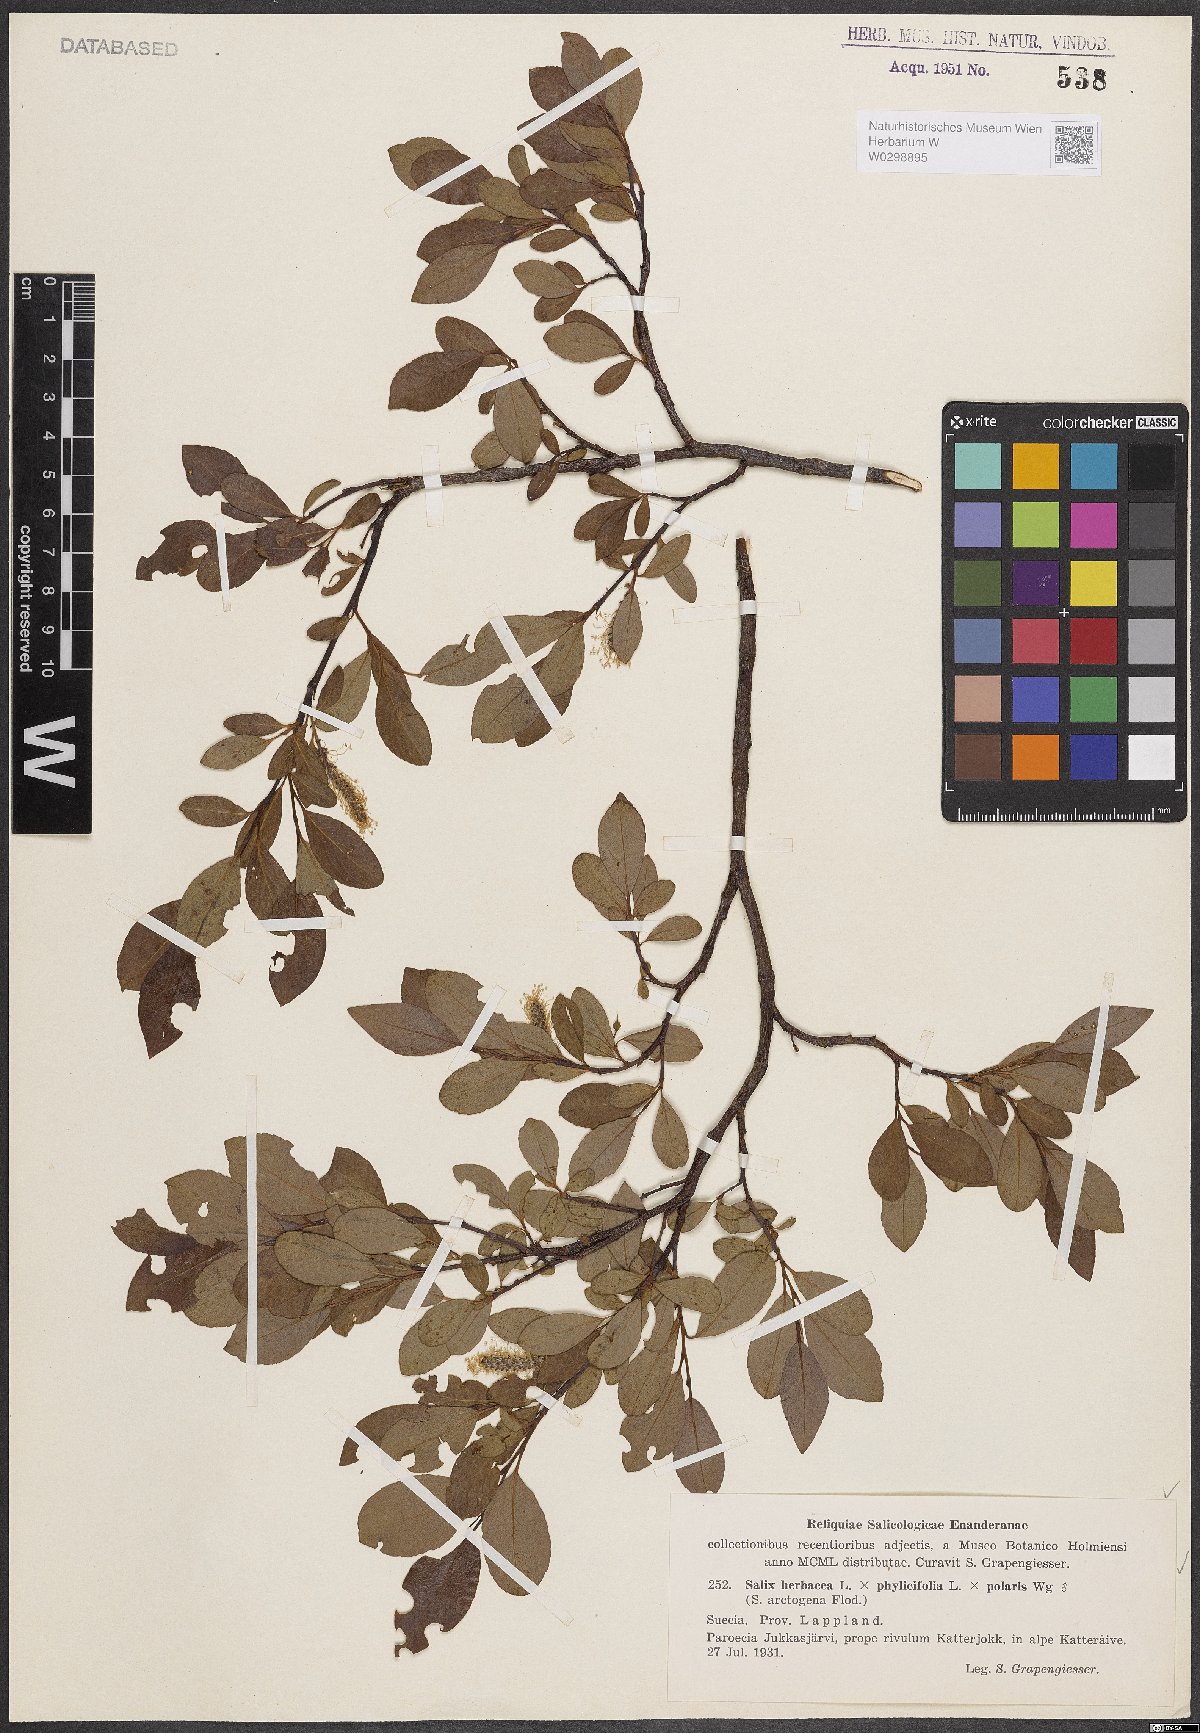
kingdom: Plantae
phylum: Tracheophyta
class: Magnoliopsida
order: Malpighiales
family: Salicaceae
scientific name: Salicaceae
